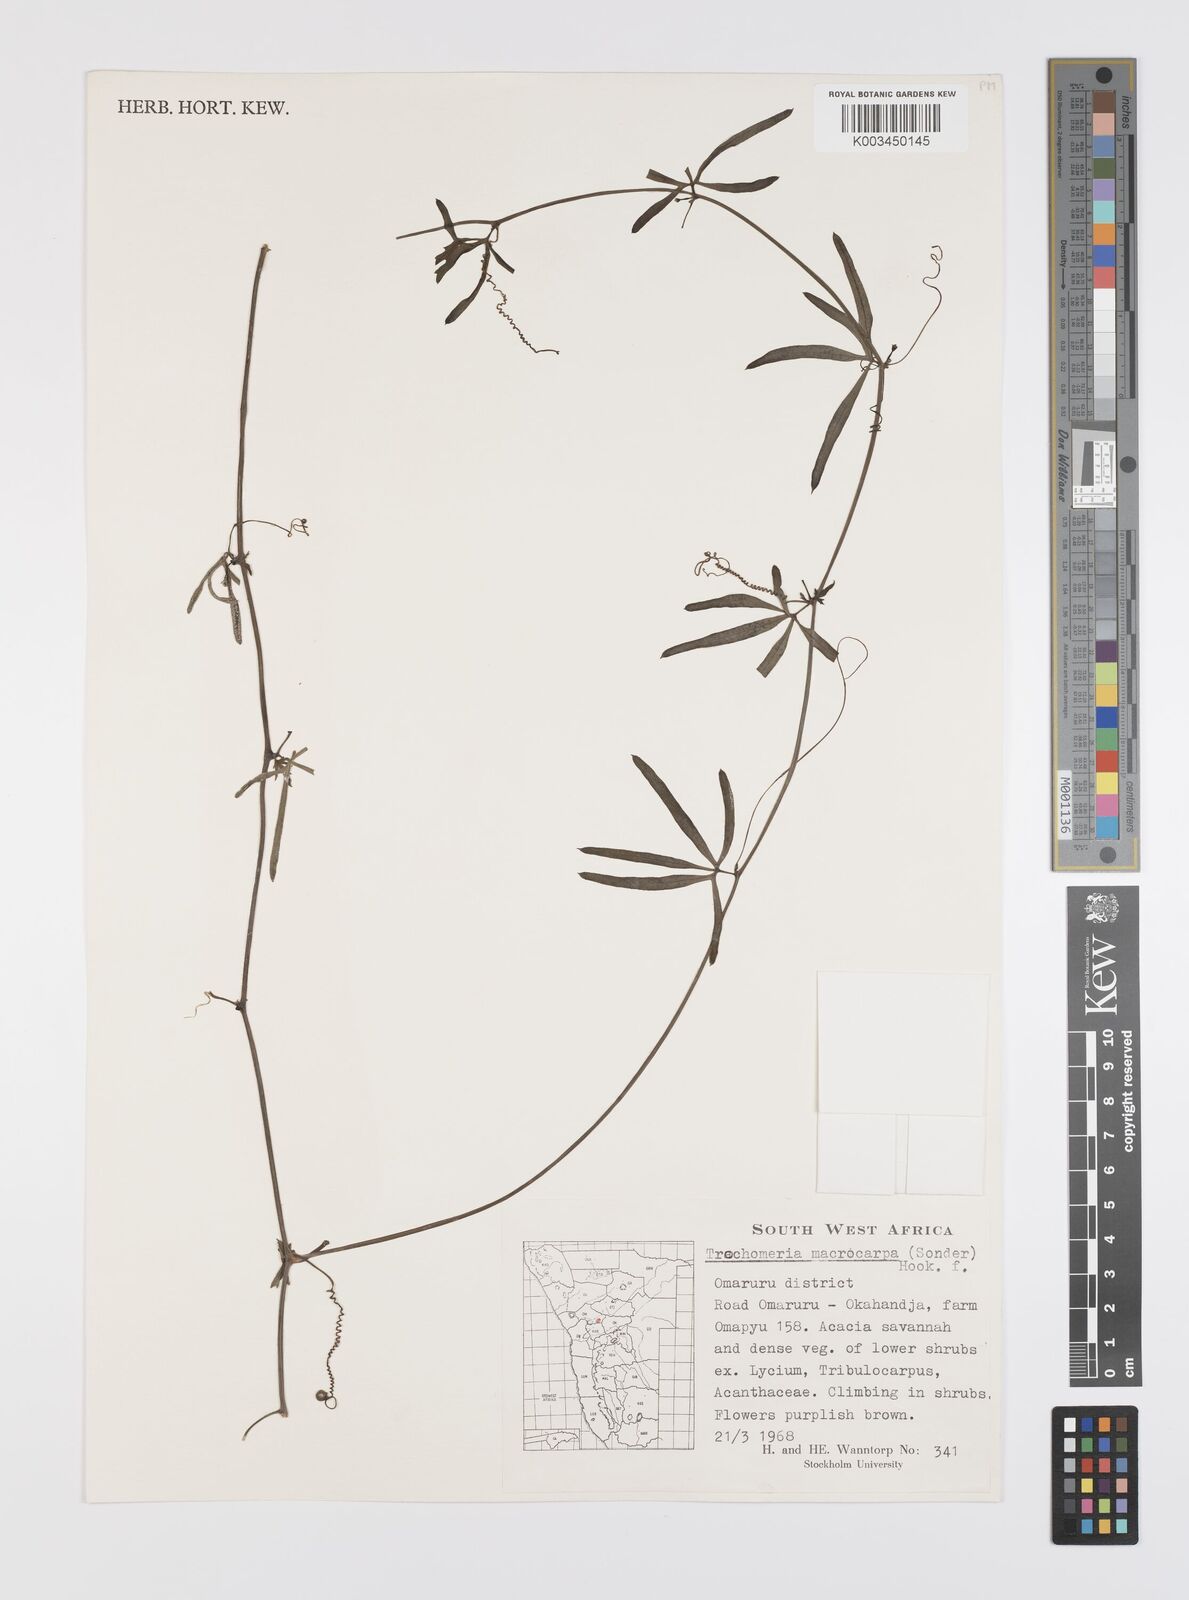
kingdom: Plantae
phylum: Tracheophyta
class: Magnoliopsida
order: Cucurbitales
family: Cucurbitaceae
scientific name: Cucurbitaceae
